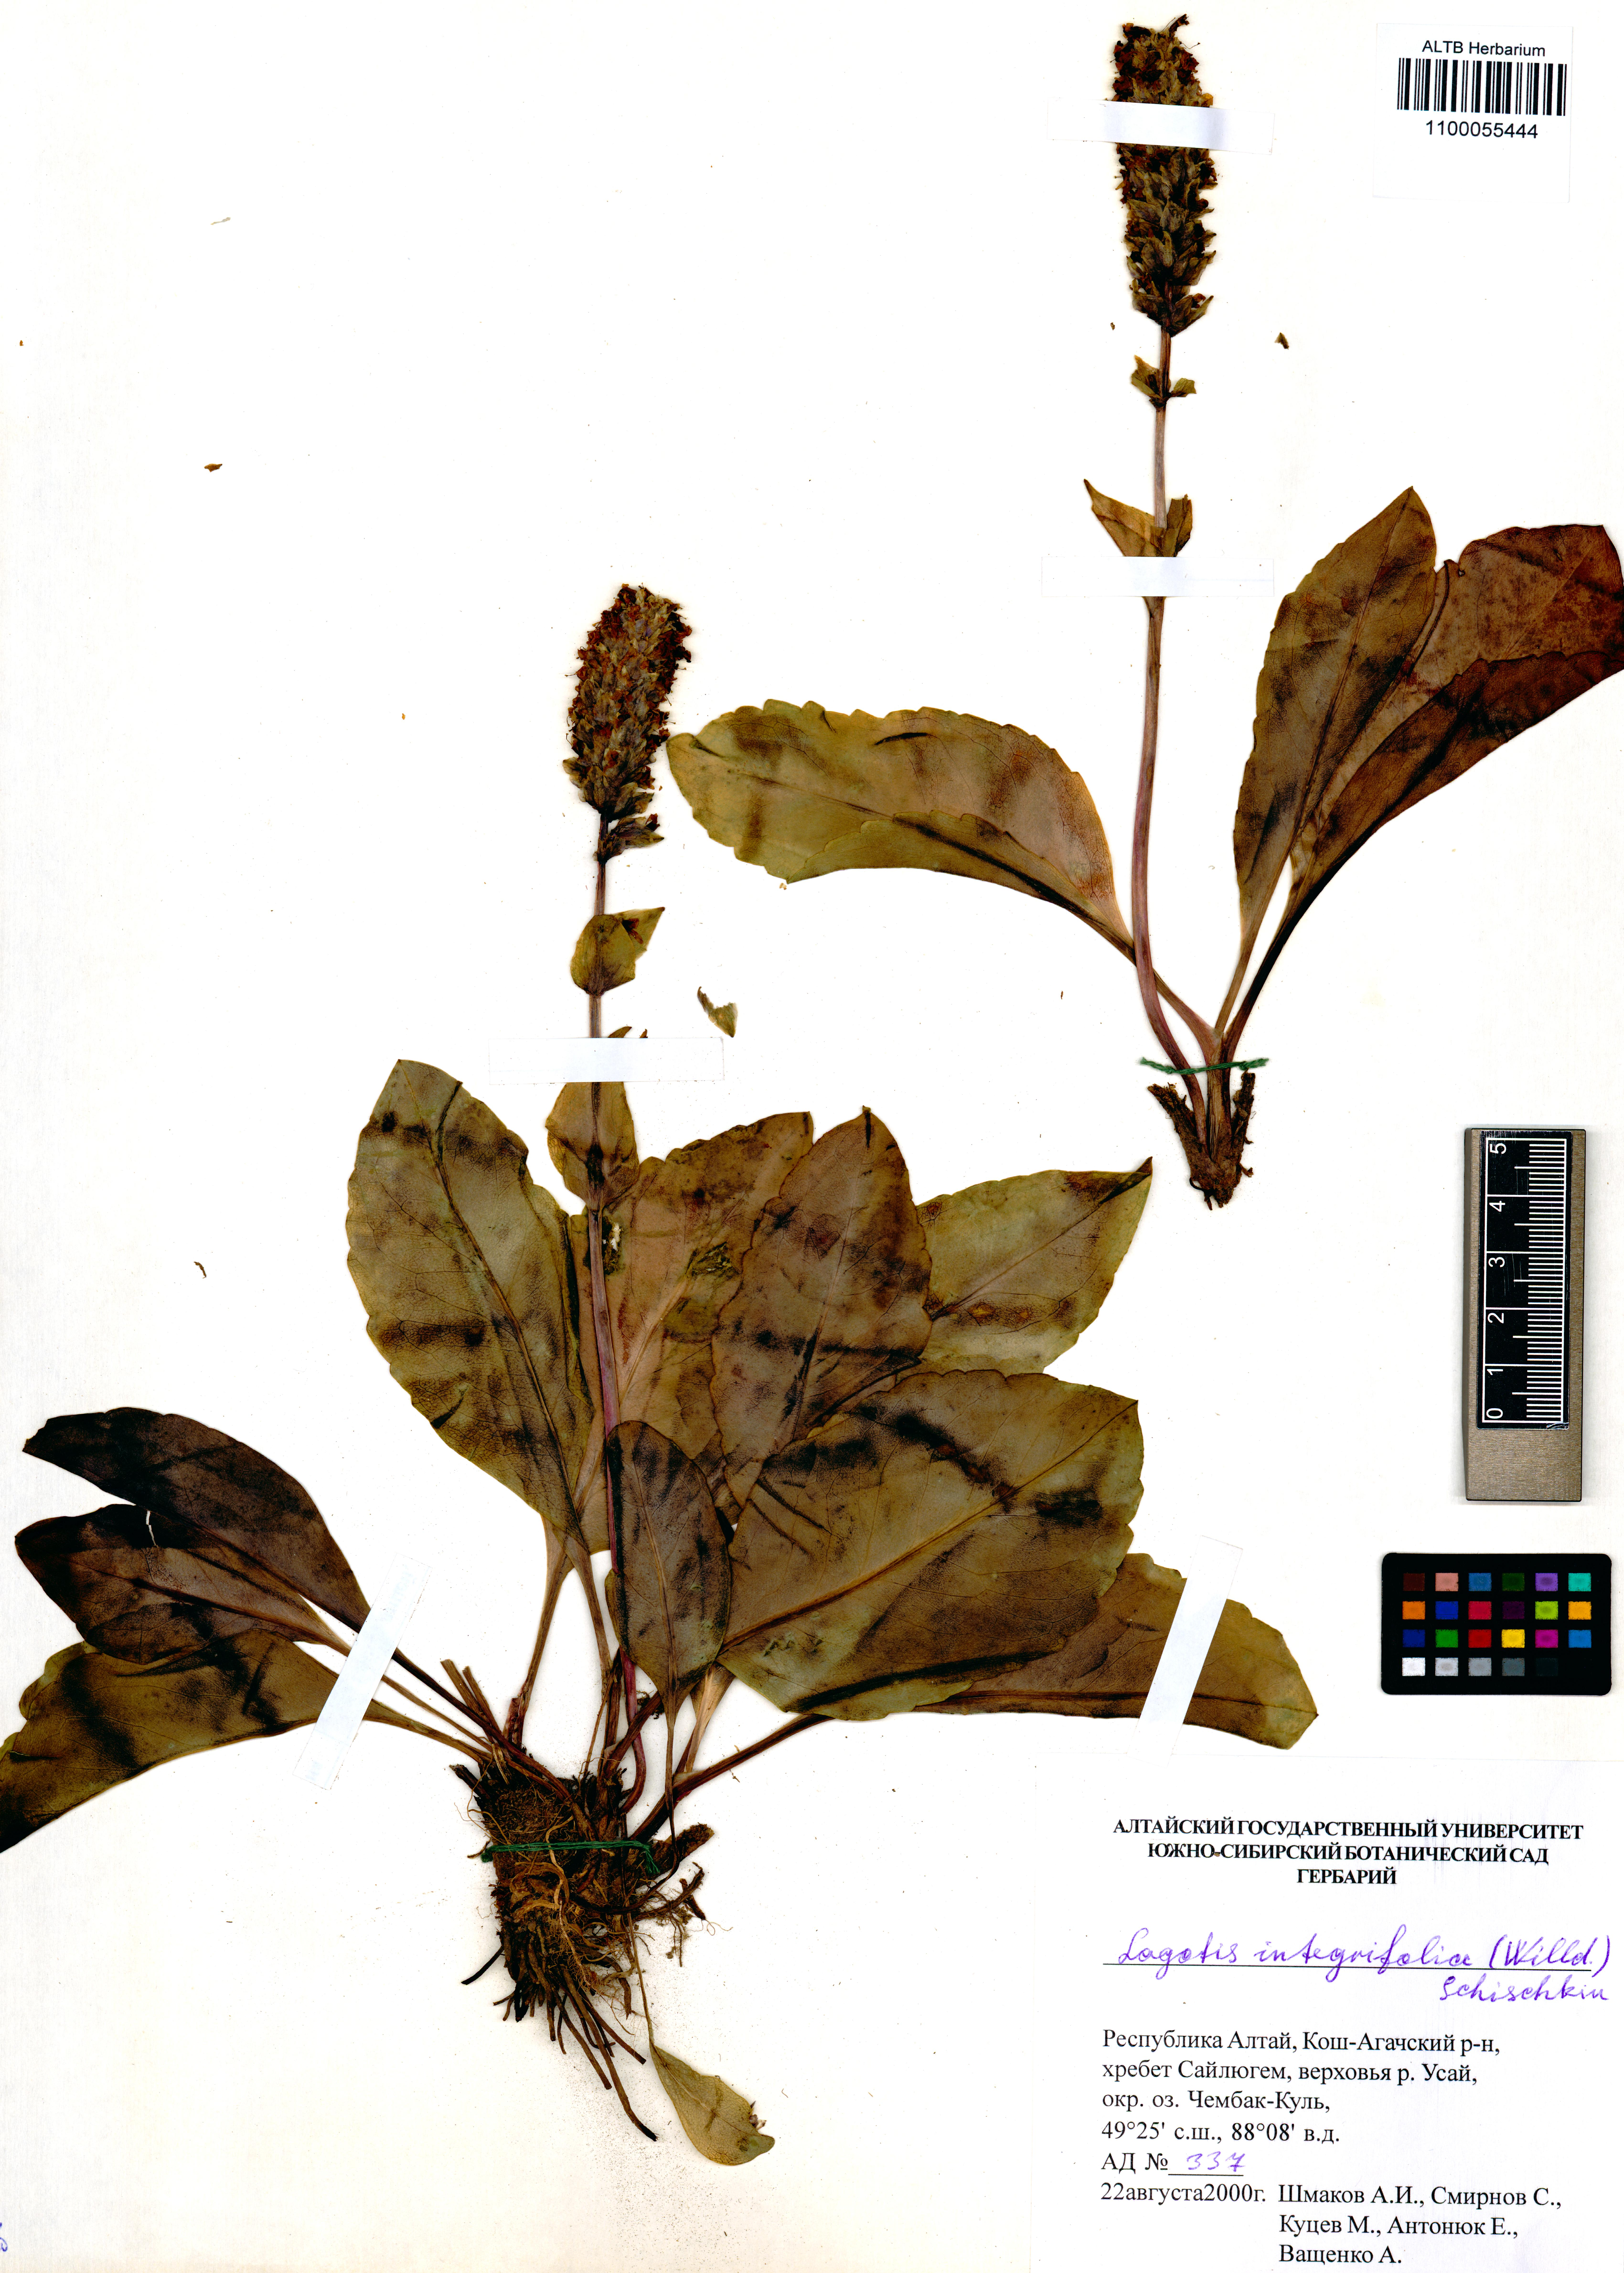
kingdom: Plantae
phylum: Tracheophyta
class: Magnoliopsida
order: Lamiales
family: Plantaginaceae
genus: Lagotis
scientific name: Lagotis integrifolia
